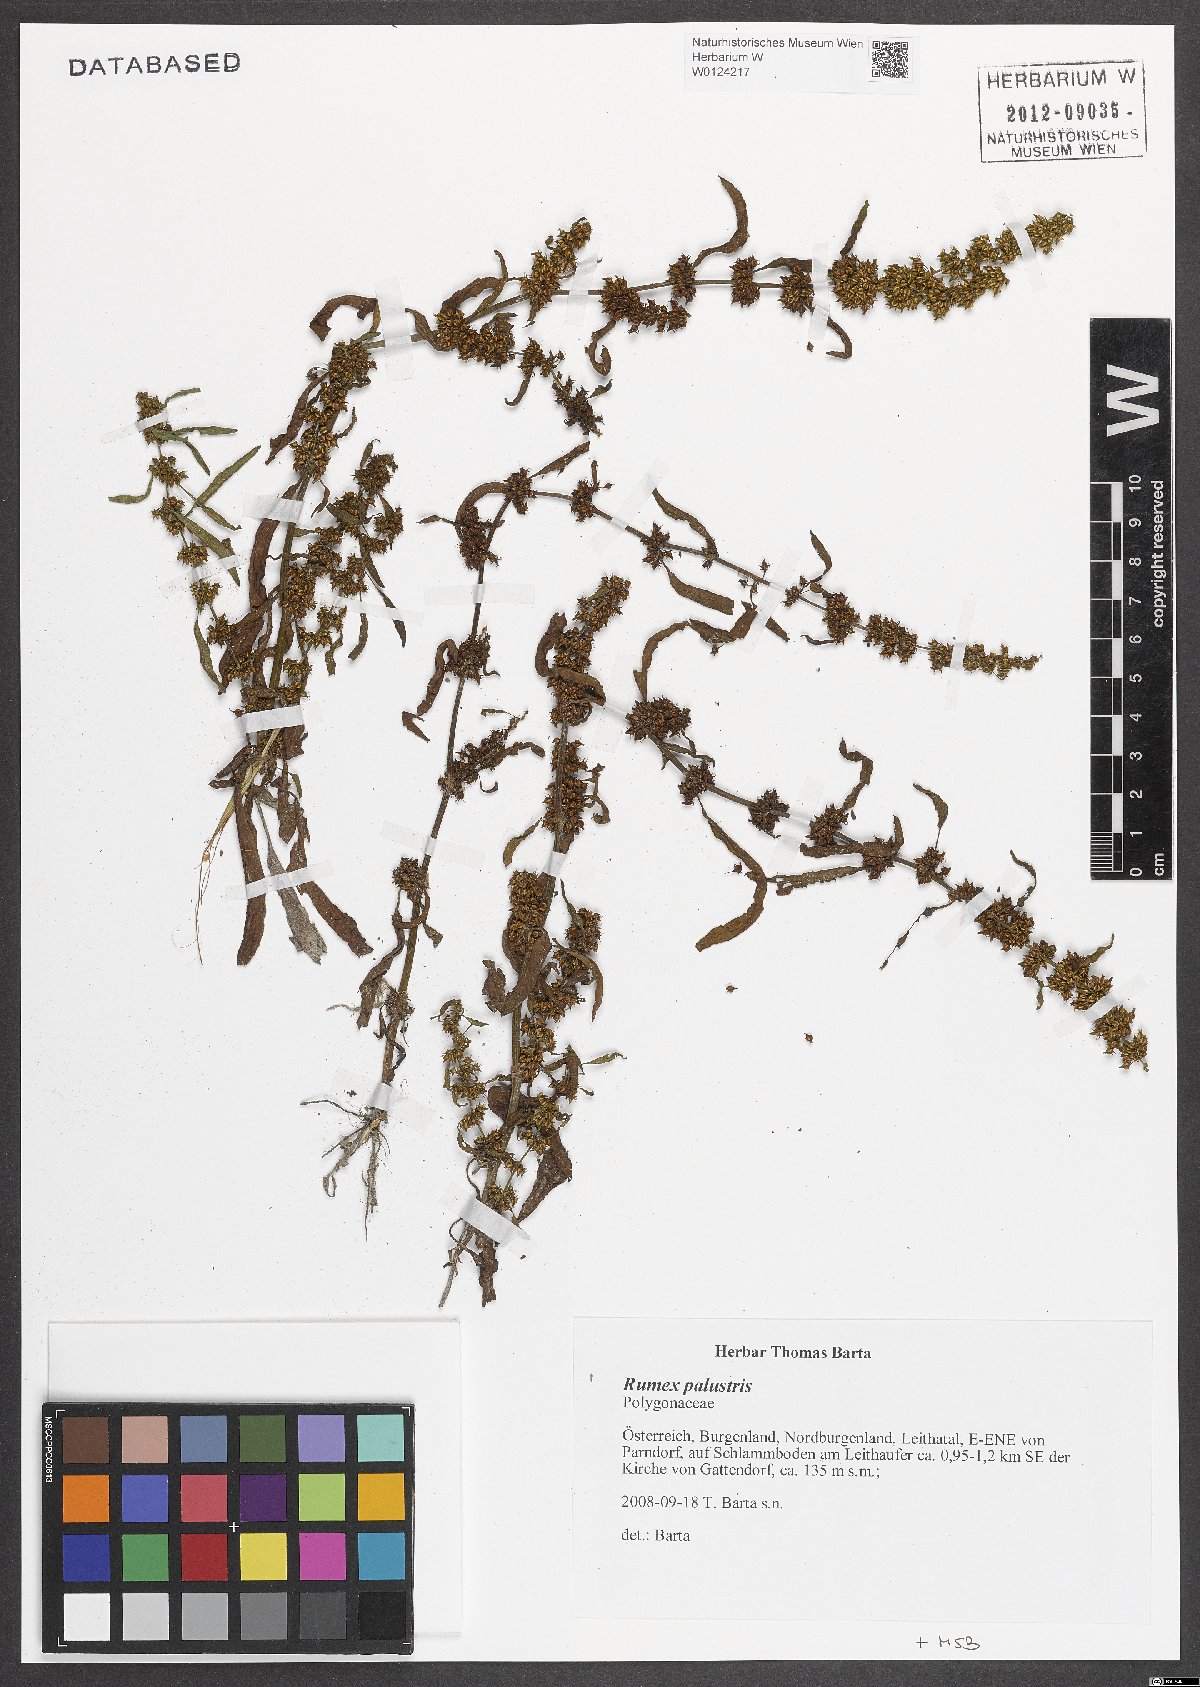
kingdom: Plantae
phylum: Tracheophyta
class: Magnoliopsida
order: Caryophyllales
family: Polygonaceae
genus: Rumex
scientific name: Rumex palustris
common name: Marsh dock
